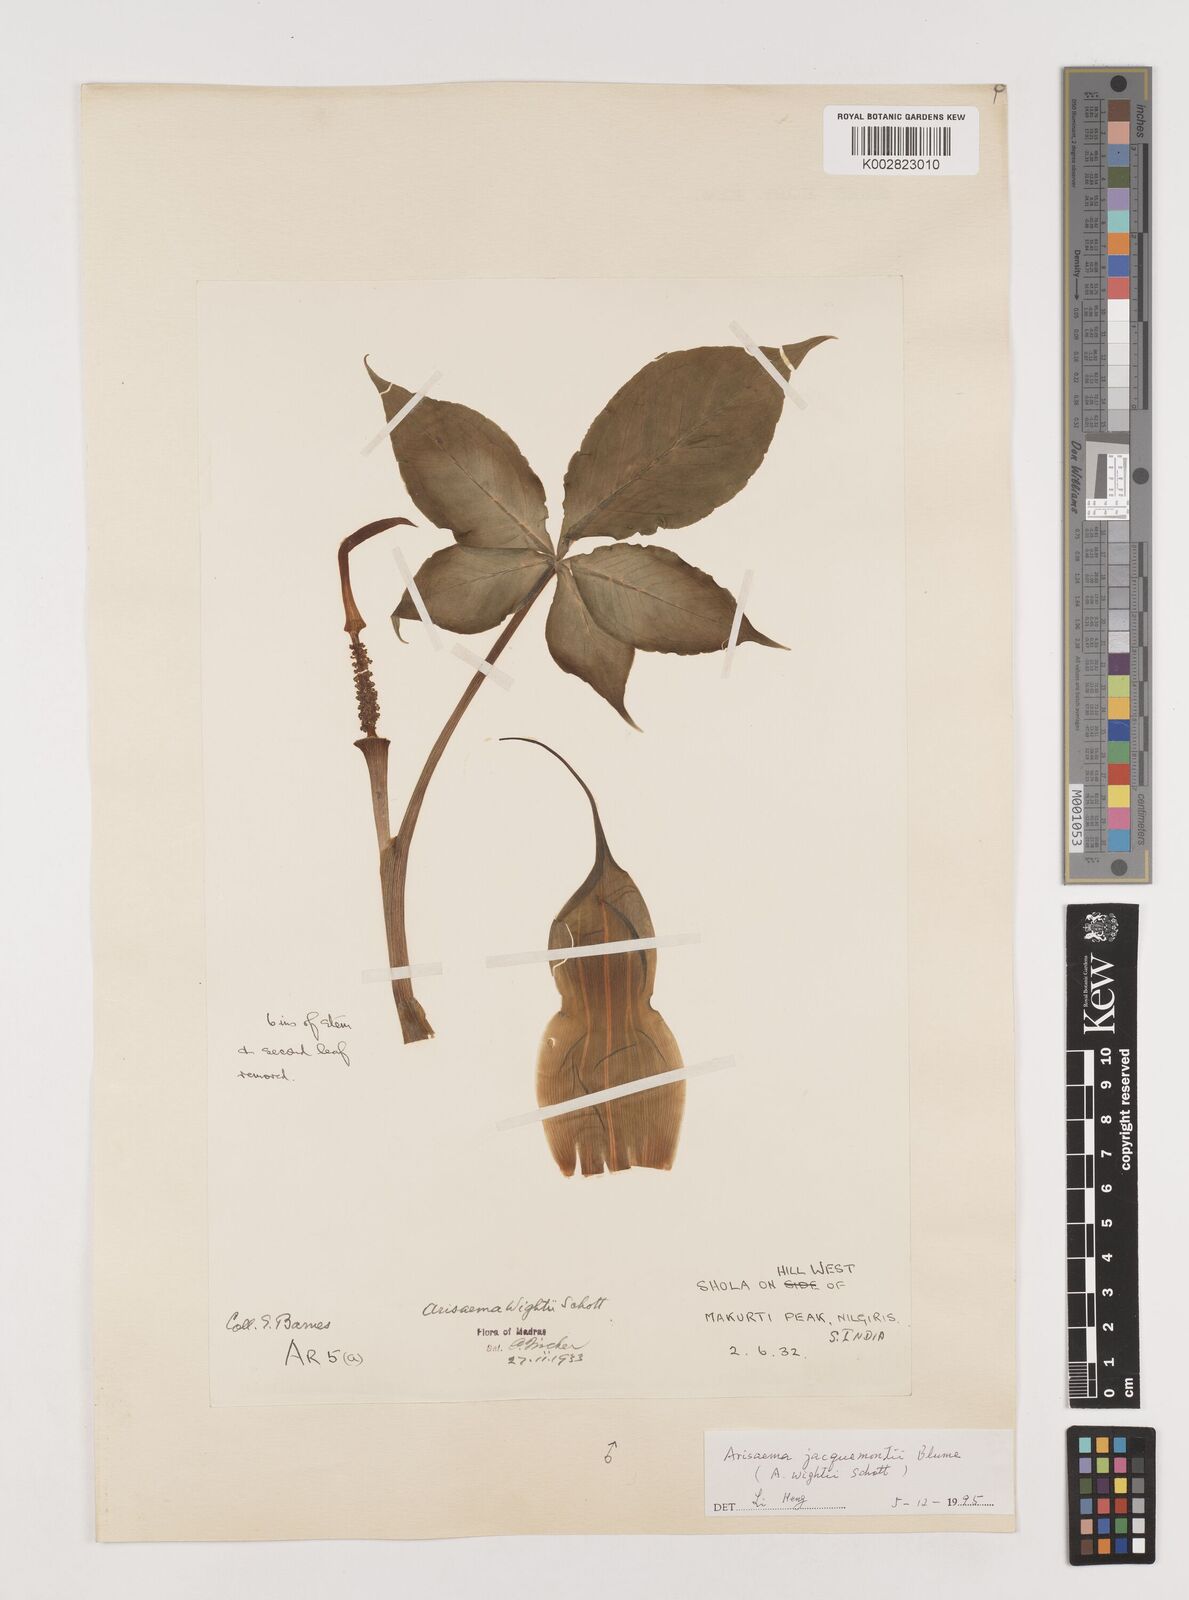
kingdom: Plantae
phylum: Tracheophyta
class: Liliopsida
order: Alismatales
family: Araceae
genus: Arisaema
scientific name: Arisaema jacquemontii
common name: Jacquemont's cobra-lily
